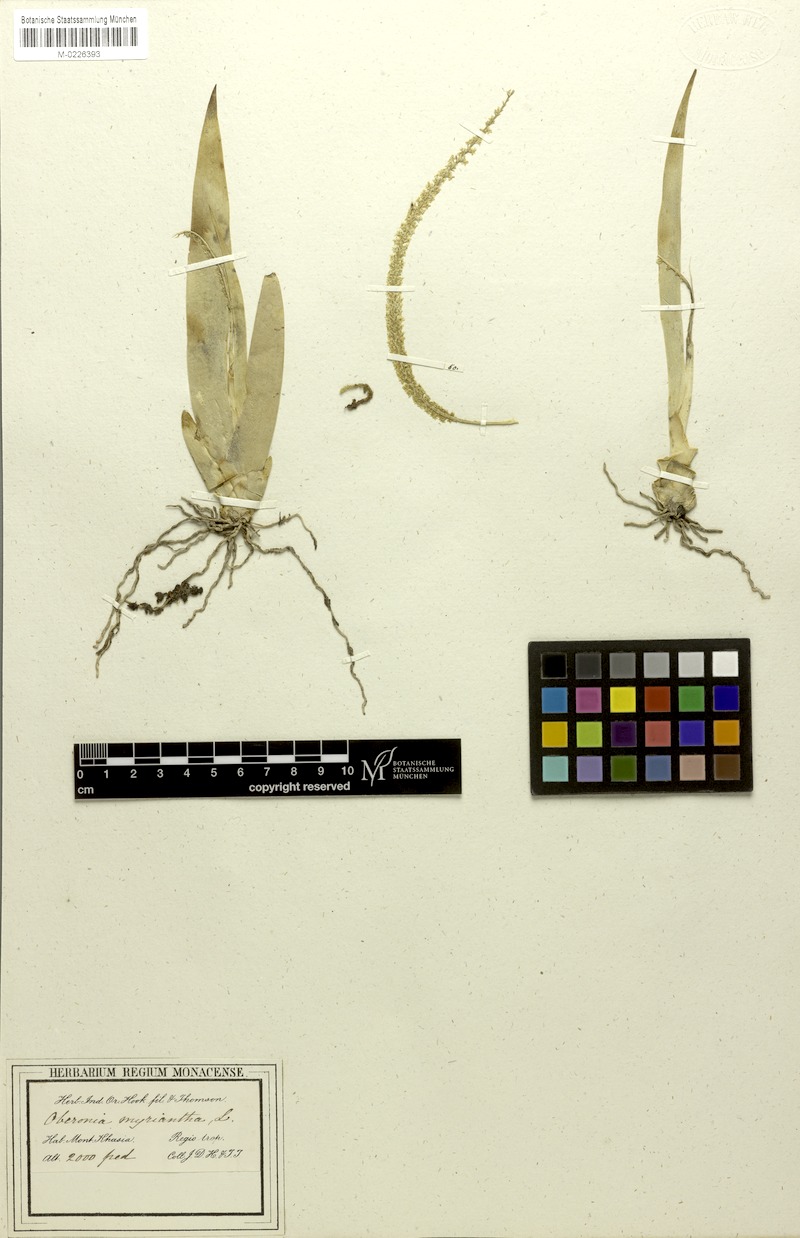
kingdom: Plantae
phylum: Tracheophyta
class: Liliopsida
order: Asparagales
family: Orchidaceae
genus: Oberonia
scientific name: Oberonia acaulis
